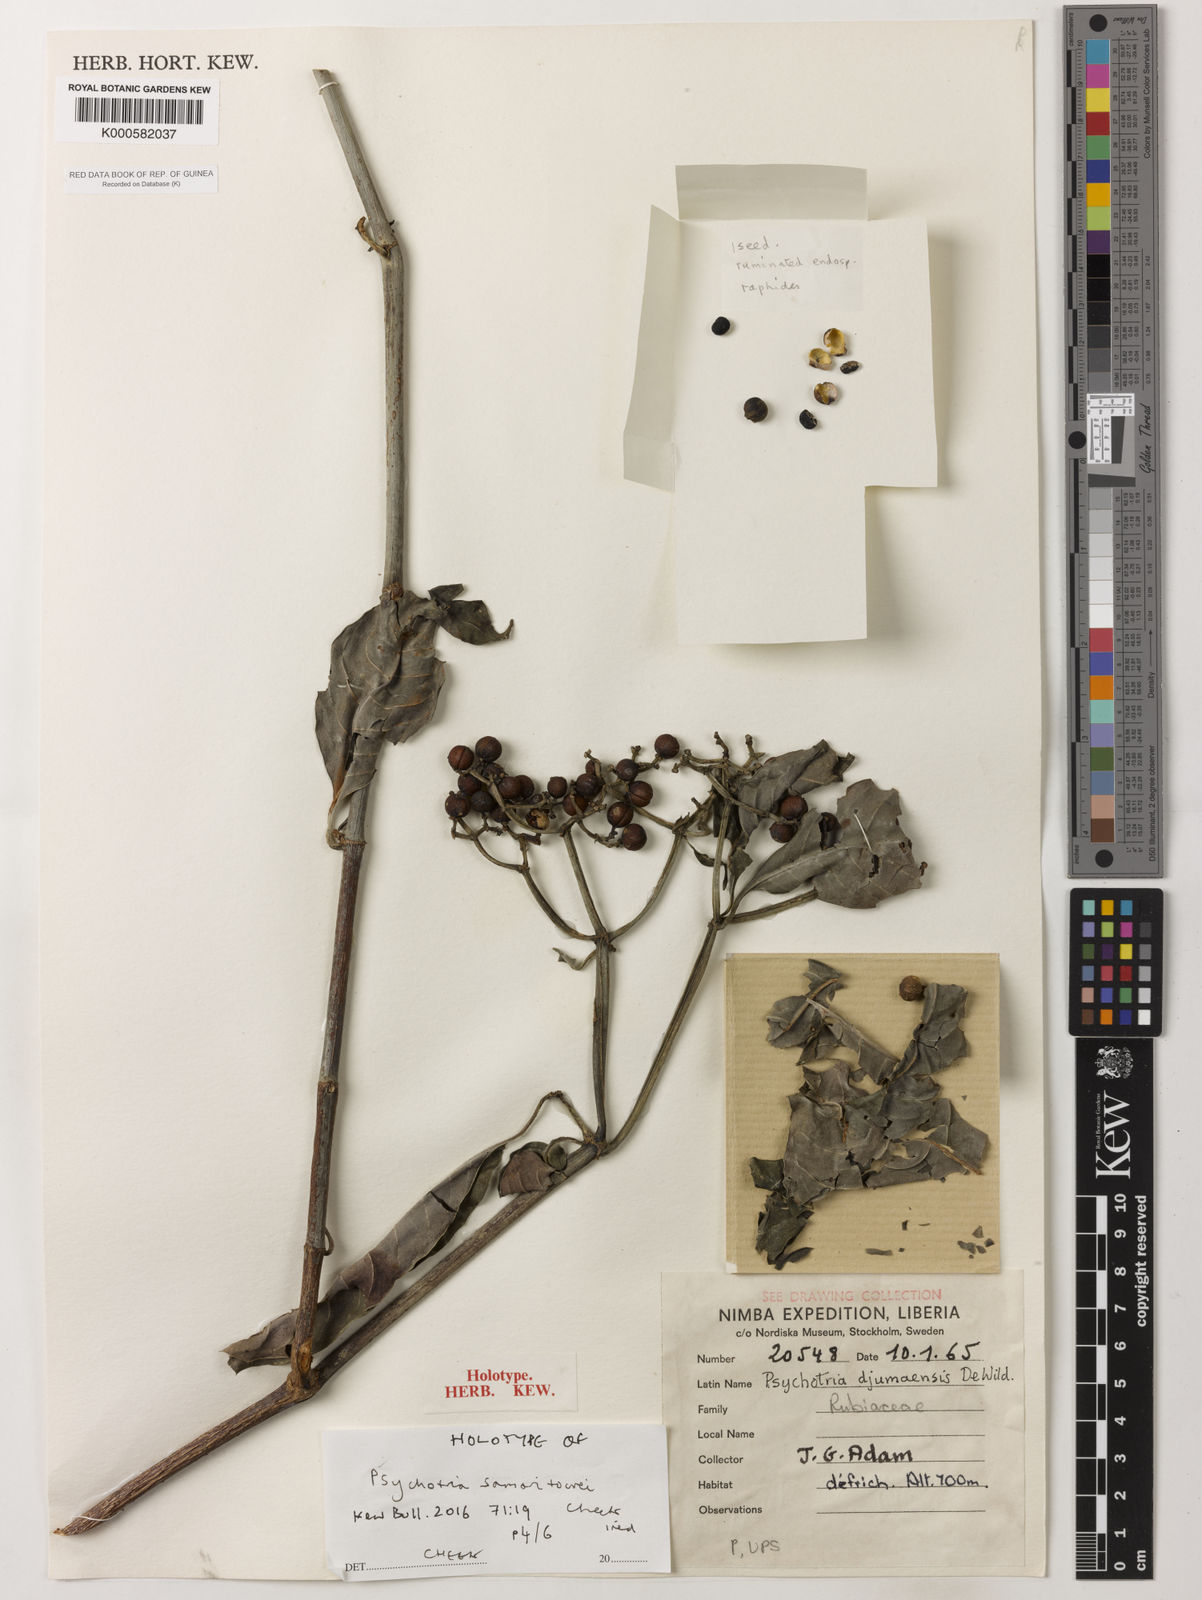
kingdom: Plantae
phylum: Tracheophyta
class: Magnoliopsida
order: Gentianales
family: Rubiaceae
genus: Psychotria
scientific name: Psychotria samoritourei
